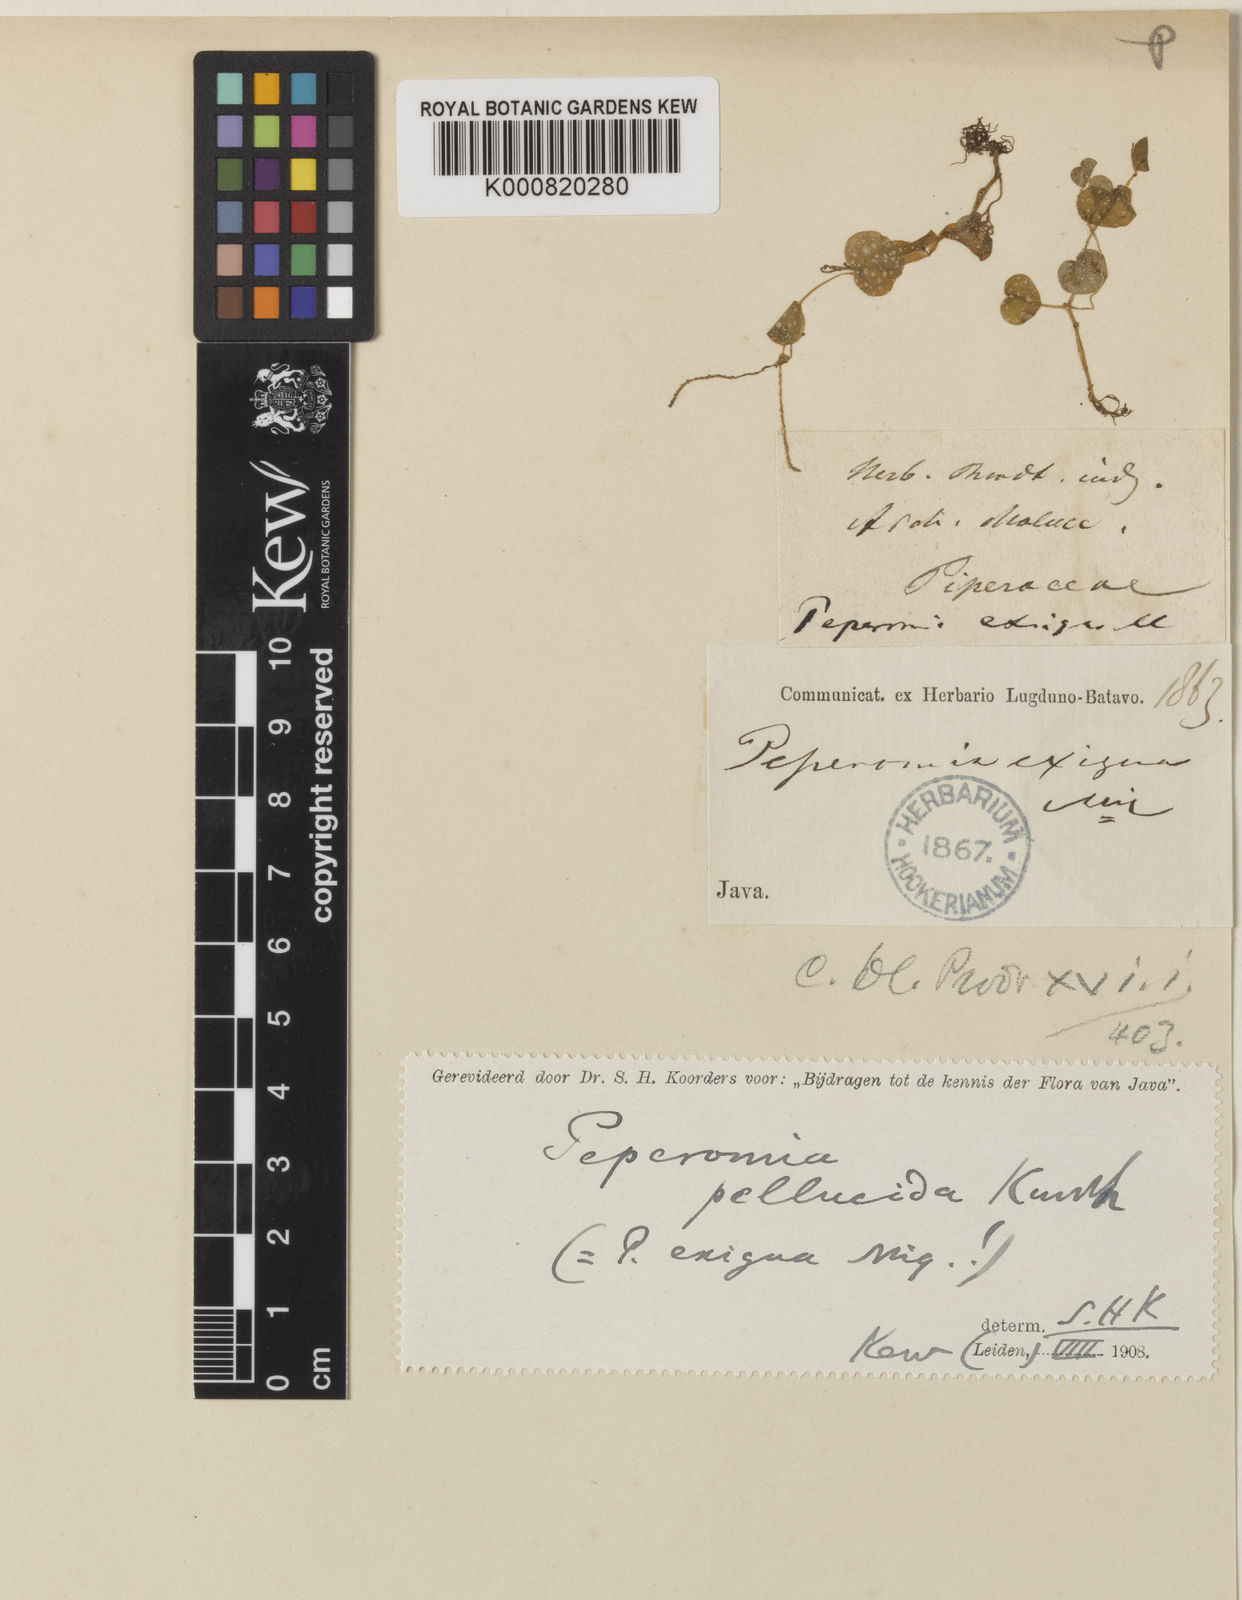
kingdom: Plantae
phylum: Tracheophyta
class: Magnoliopsida
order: Piperales
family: Piperaceae
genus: Peperomia
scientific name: Peperomia pellucida
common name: Man to man
